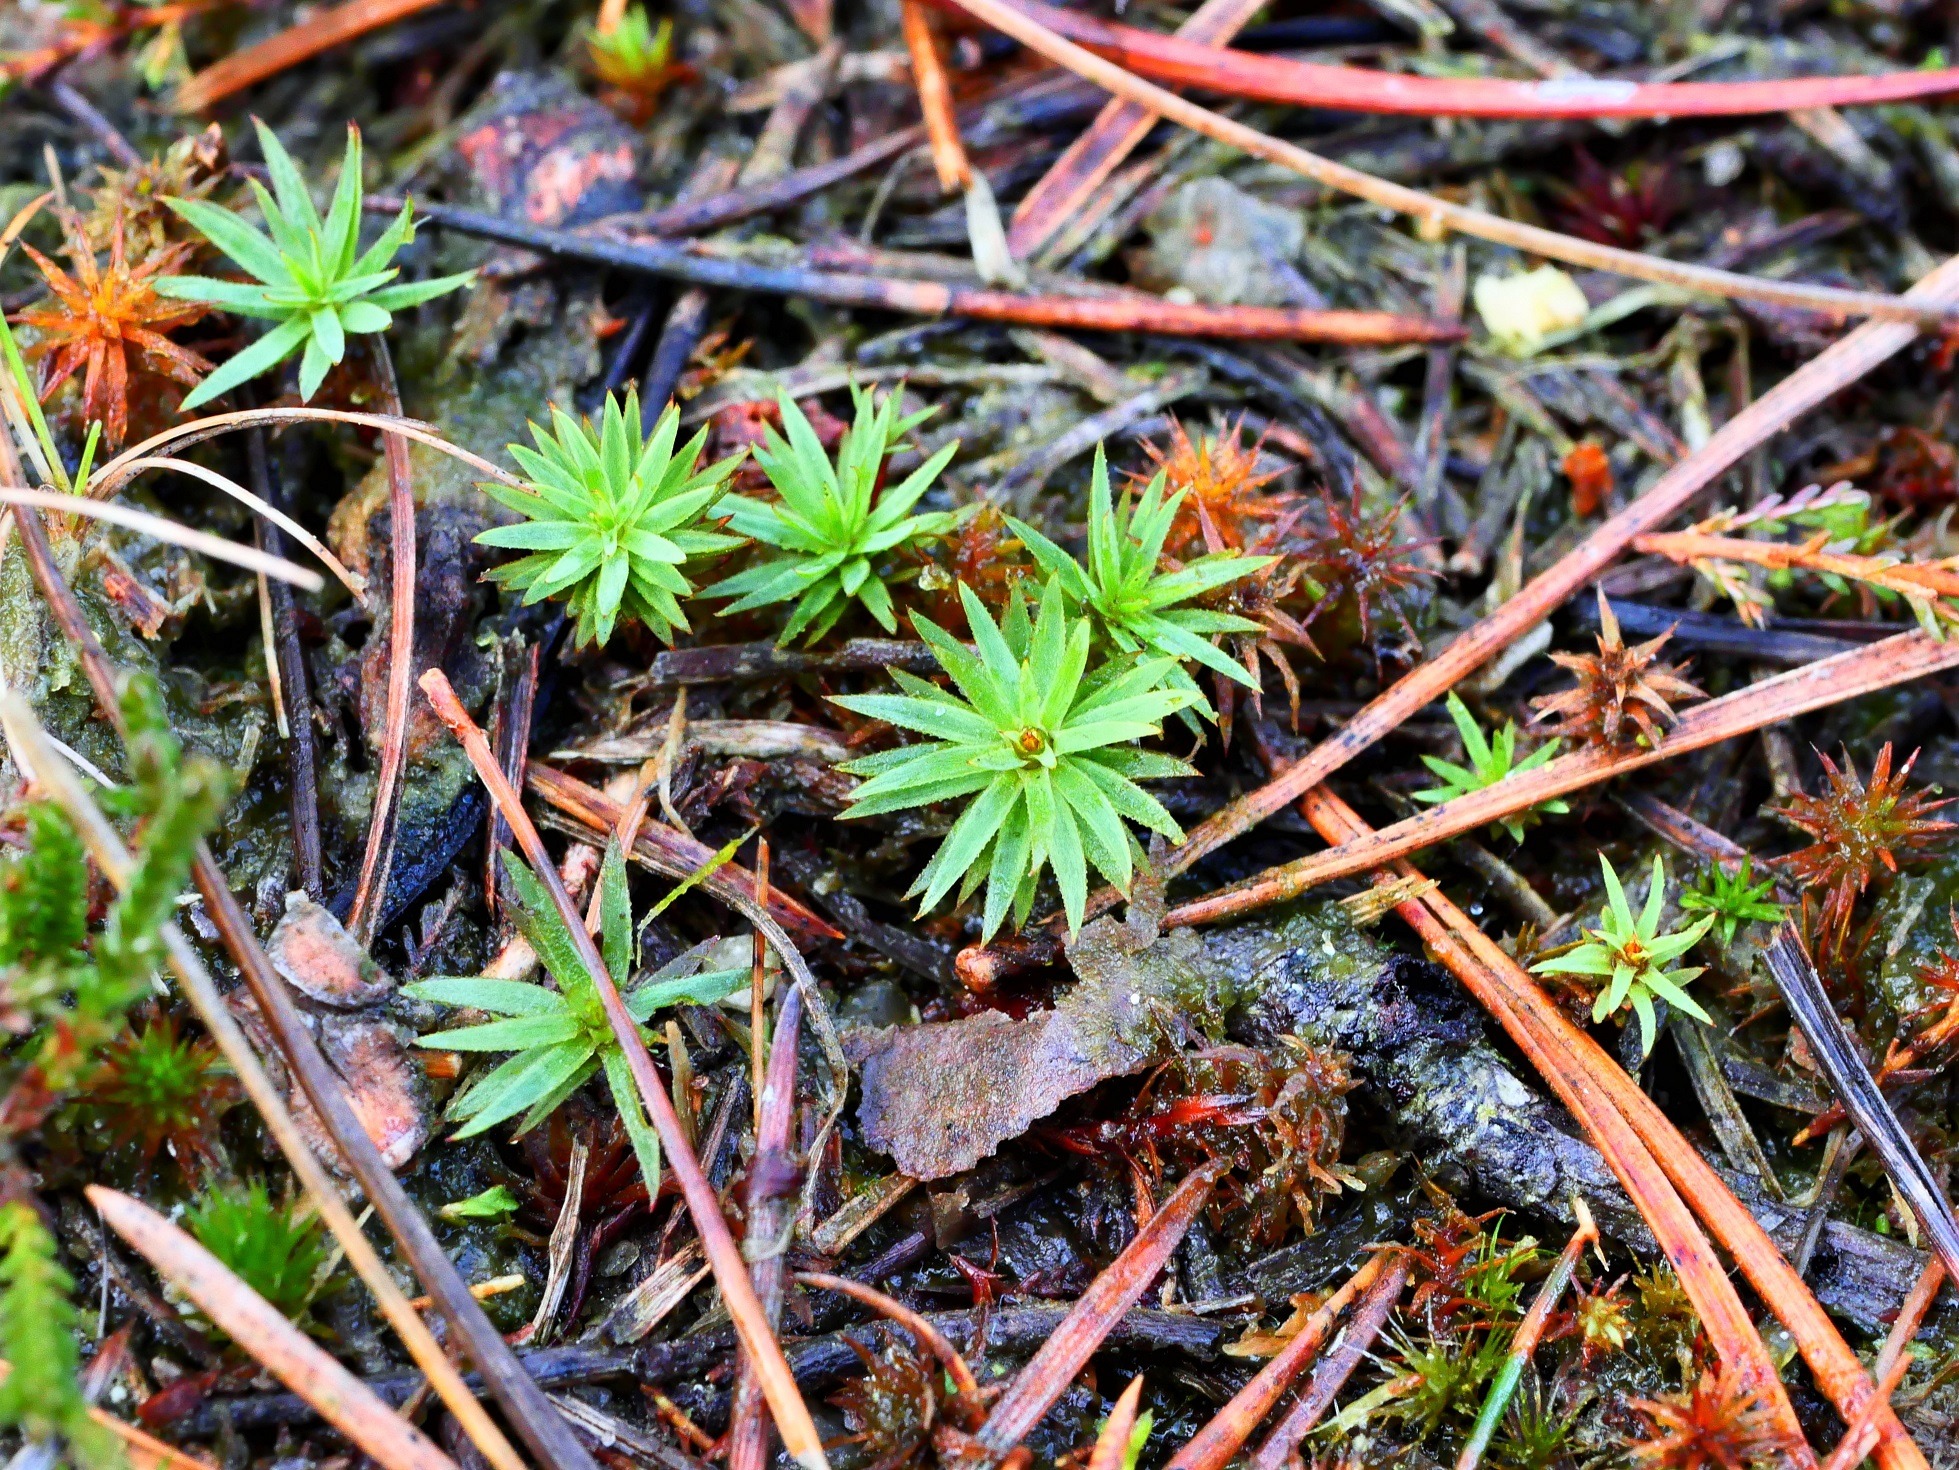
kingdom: Plantae
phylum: Bryophyta
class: Polytrichopsida
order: Polytrichales
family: Polytrichaceae
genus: Pogonatum
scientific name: Pogonatum urnigerum
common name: Stor urnekapsel
